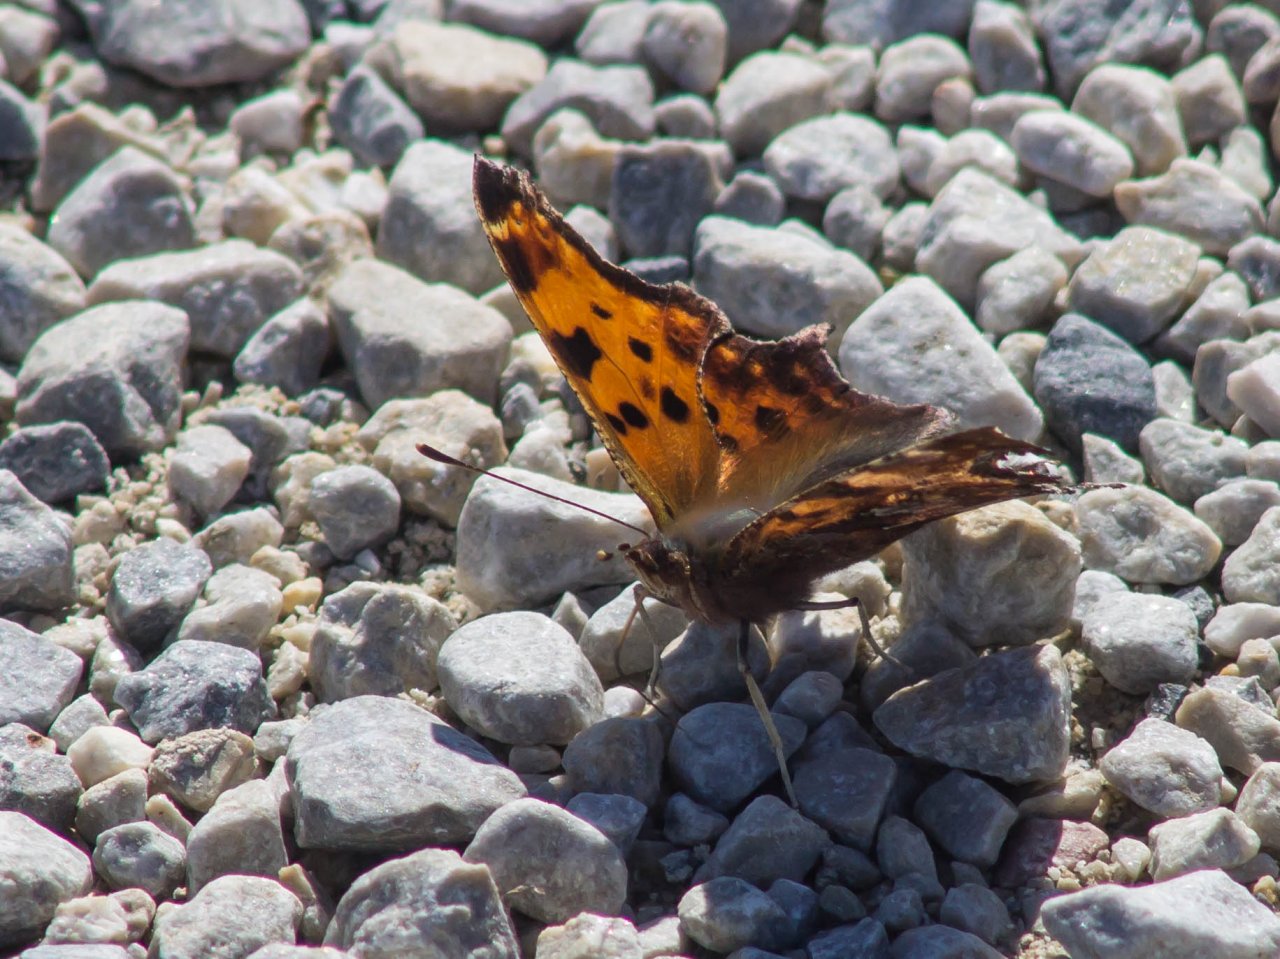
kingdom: Animalia
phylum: Arthropoda
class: Insecta
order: Lepidoptera
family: Nymphalidae
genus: Polygonia
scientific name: Polygonia comma
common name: Eastern Comma
